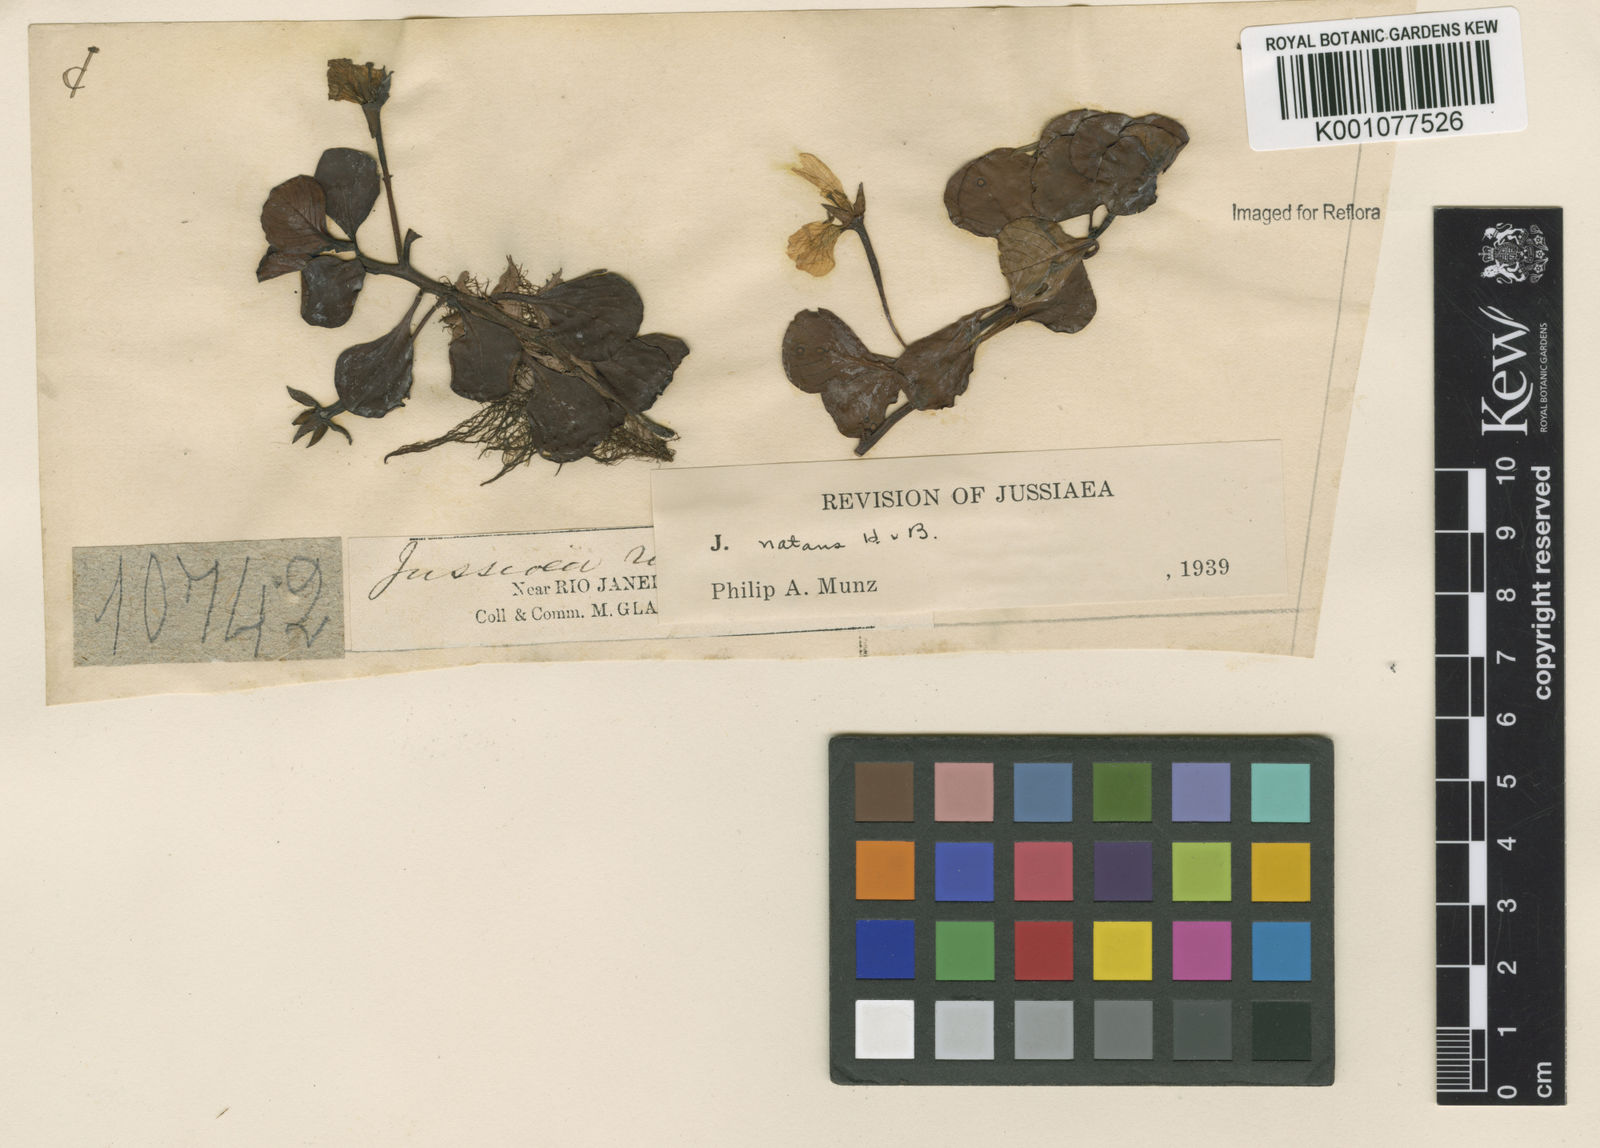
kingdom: Plantae
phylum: Tracheophyta
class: Magnoliopsida
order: Myrtales
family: Onagraceae
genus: Ludwigia
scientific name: Ludwigia helminthorrhiza
